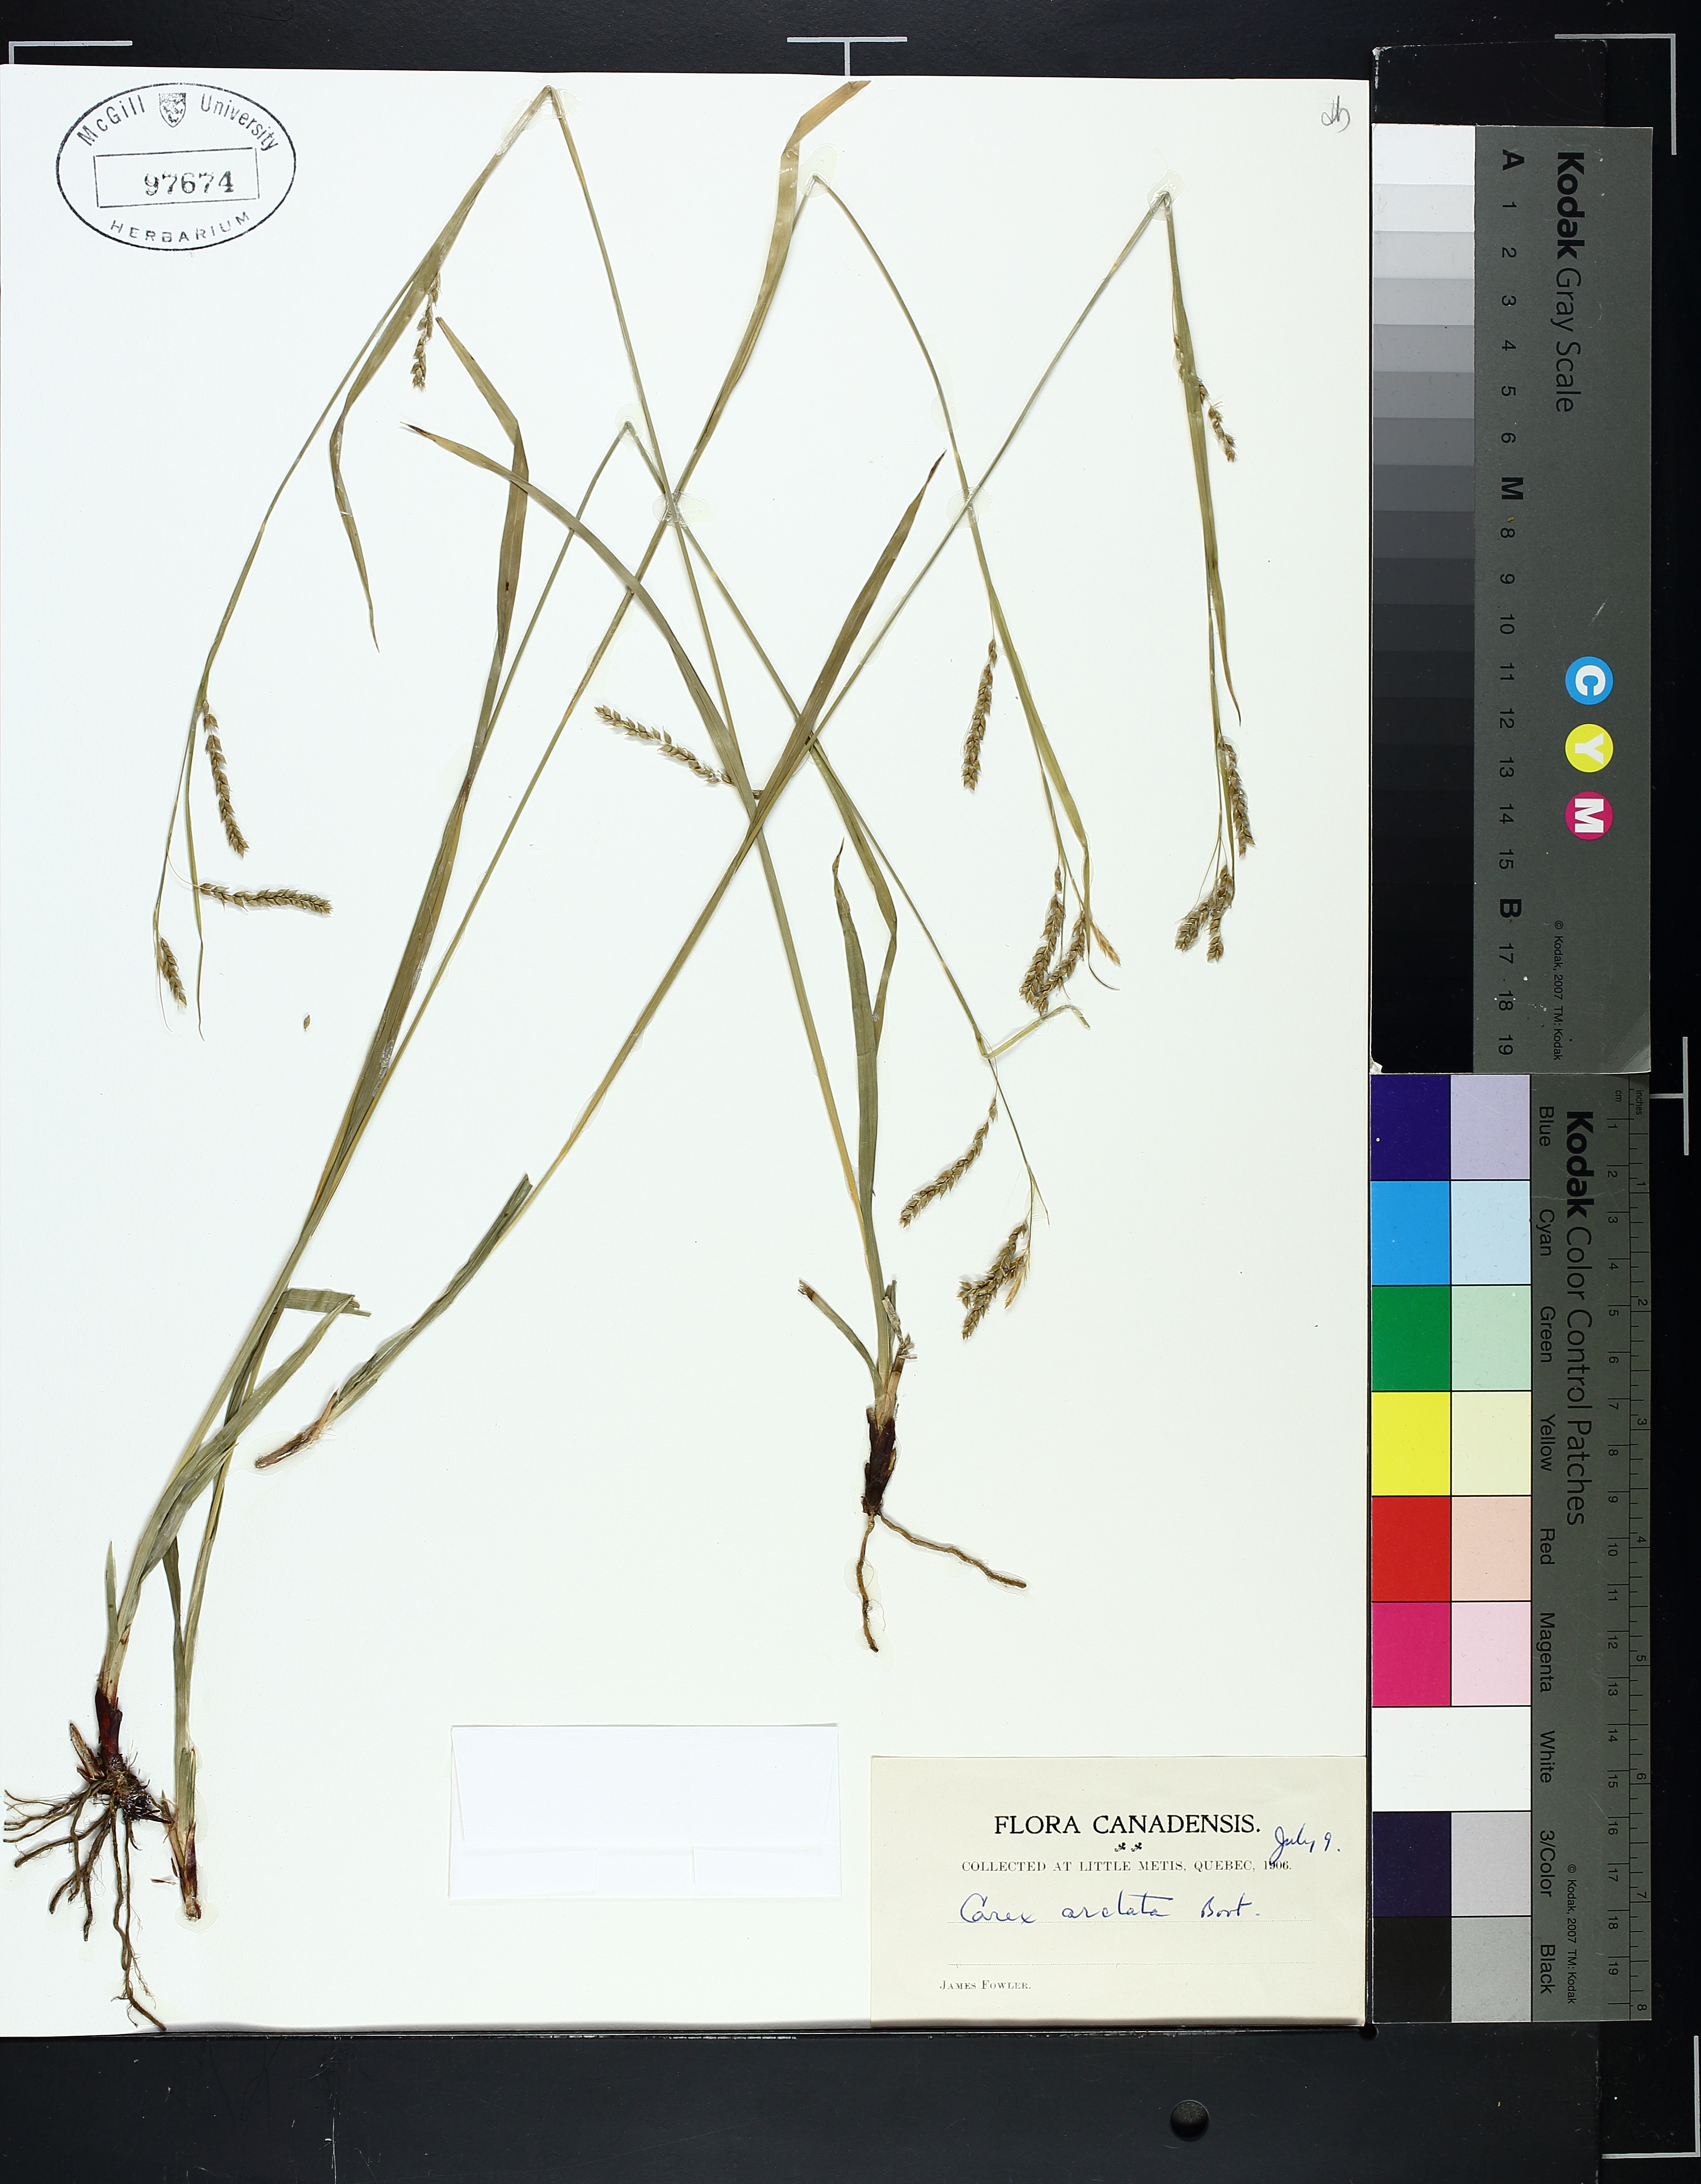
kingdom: Plantae
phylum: Tracheophyta
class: Liliopsida
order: Poales
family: Cyperaceae
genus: Carex
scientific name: Carex arctata
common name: Black sedge
